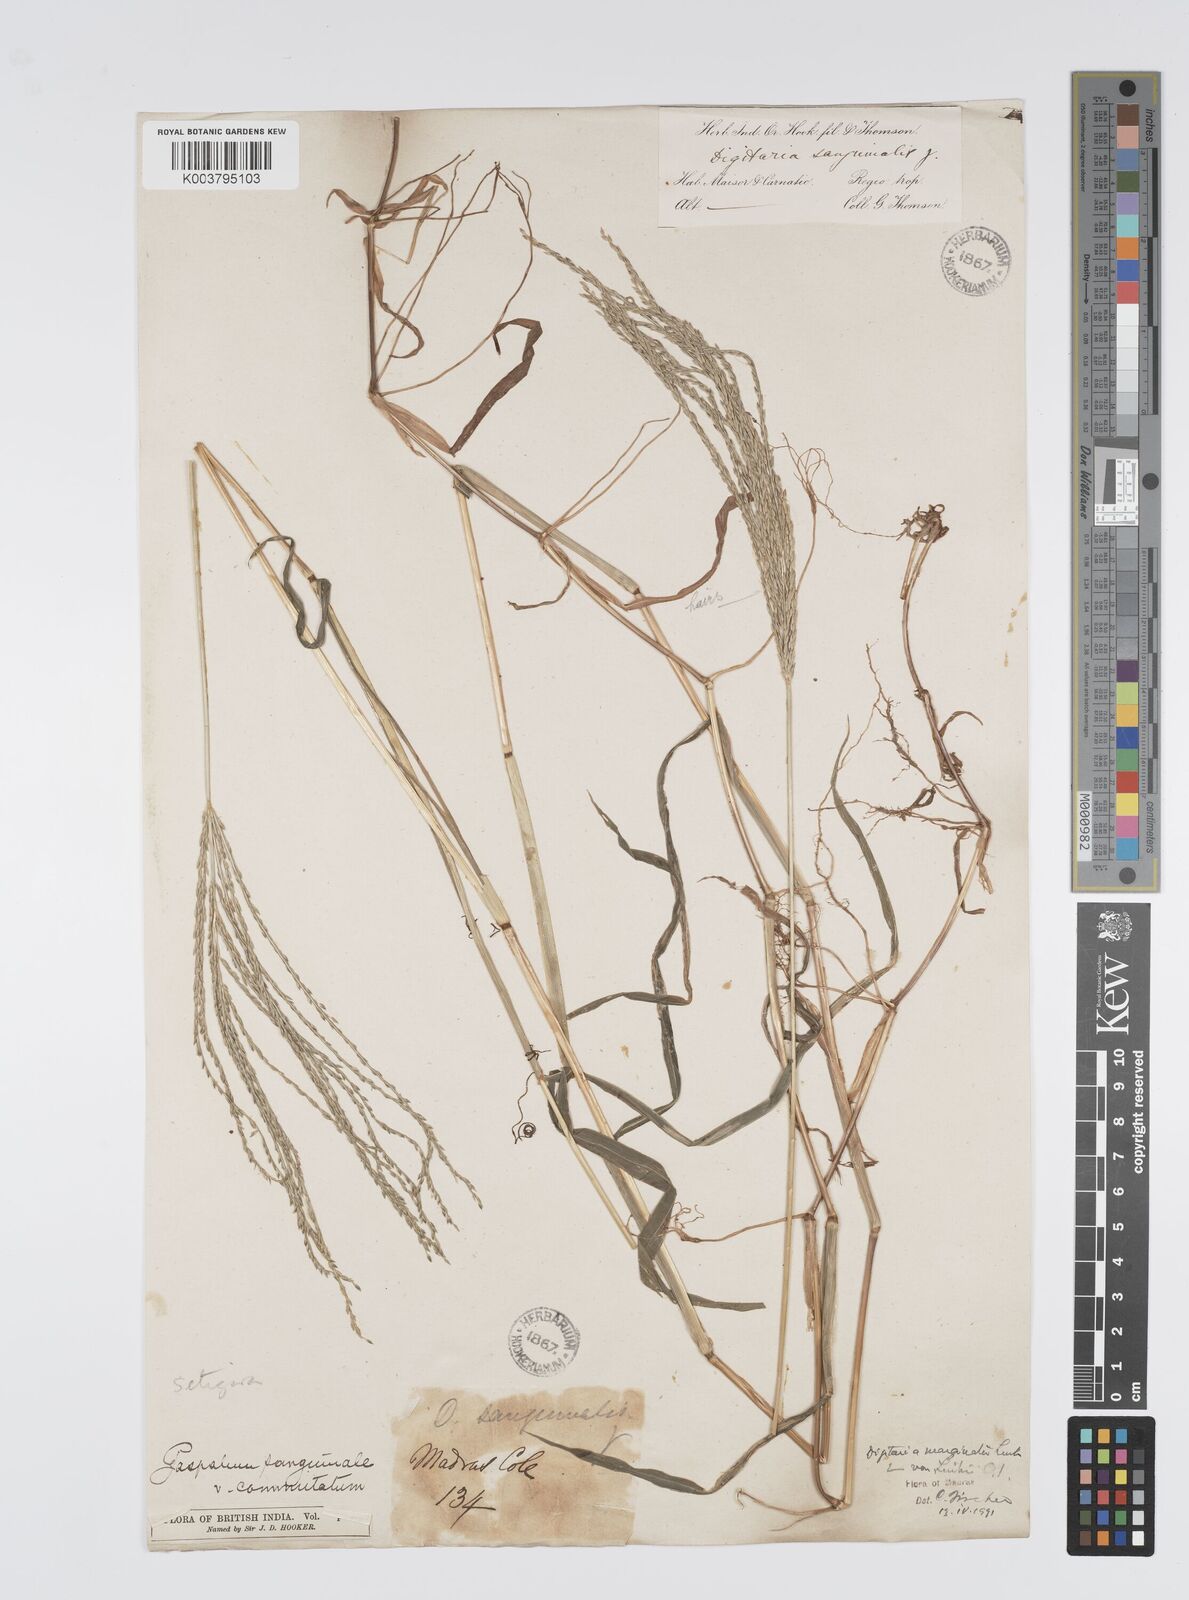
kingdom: Plantae
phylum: Tracheophyta
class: Liliopsida
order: Poales
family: Poaceae
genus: Digitaria
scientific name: Digitaria setigera
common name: East indian crabgrass
